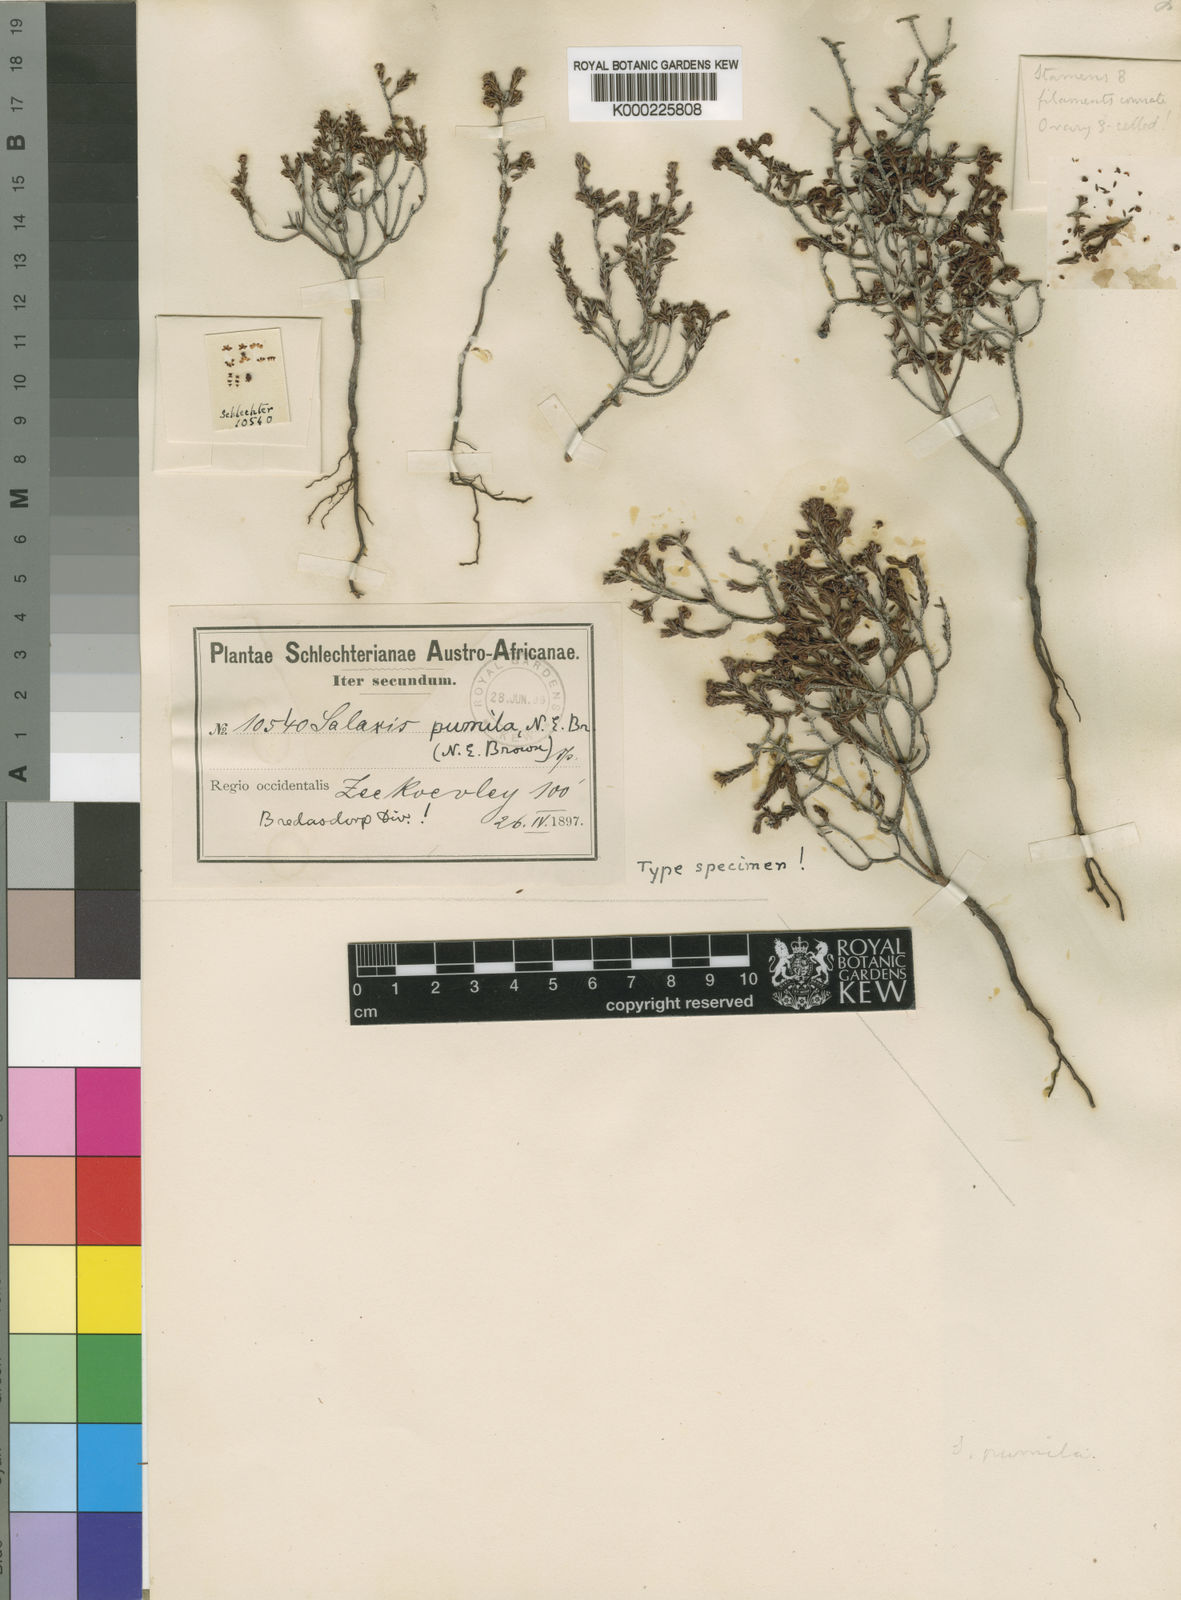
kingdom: Plantae
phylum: Tracheophyta
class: Magnoliopsida
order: Ericales
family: Ericaceae
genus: Erica
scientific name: Erica bredasiana
